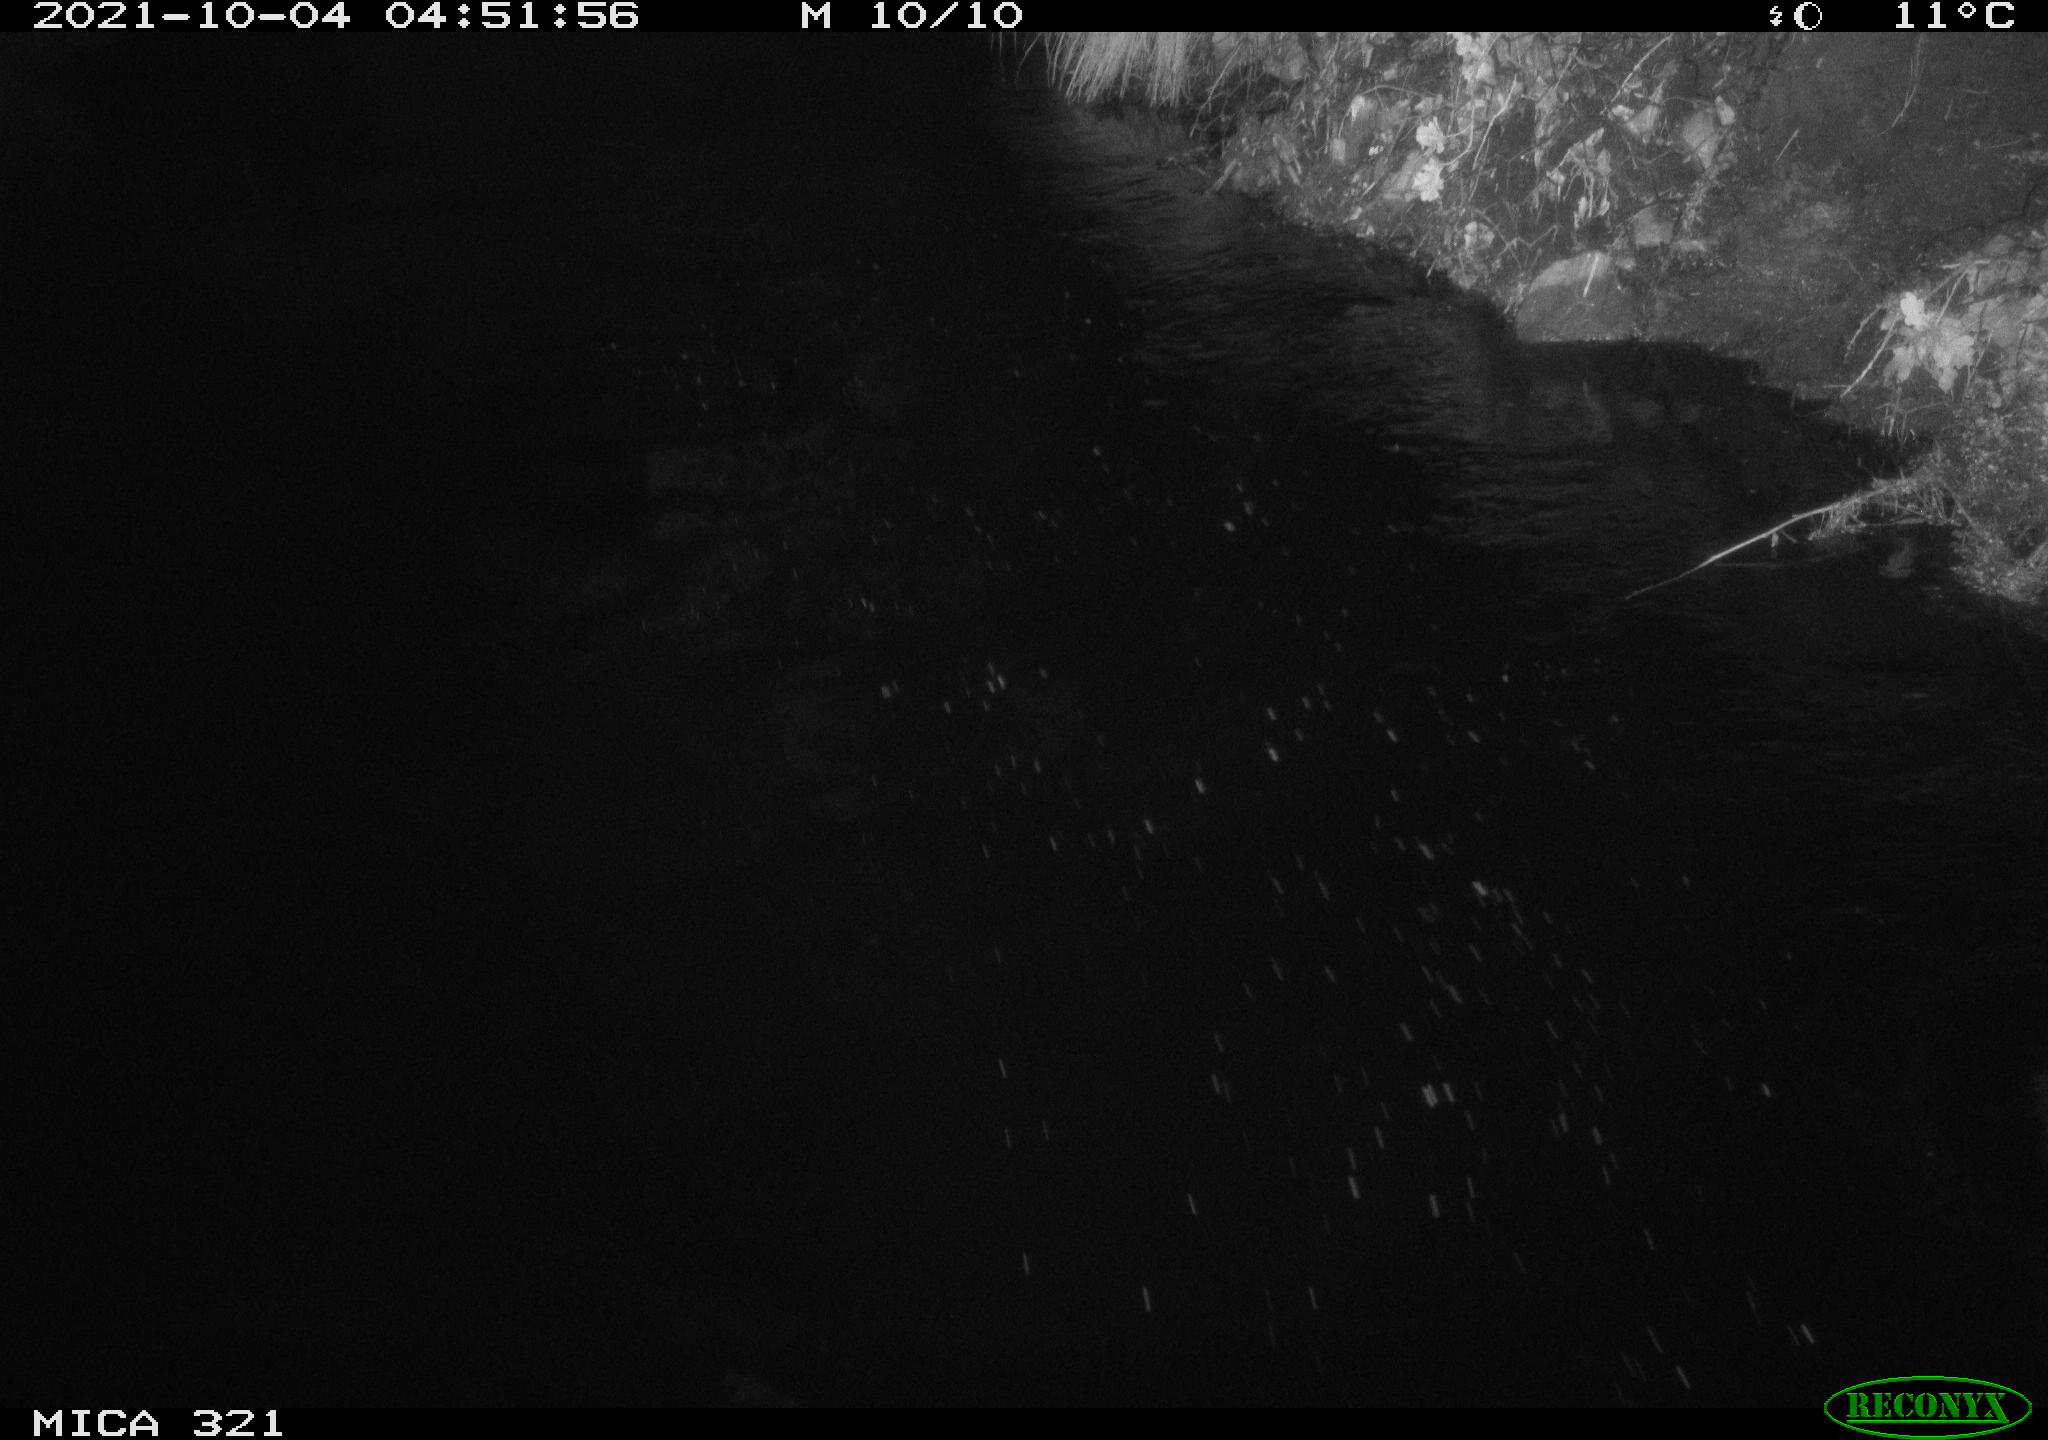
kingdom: Animalia
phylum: Chordata
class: Mammalia
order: Rodentia
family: Muridae
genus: Rattus
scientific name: Rattus norvegicus
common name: Brown rat
